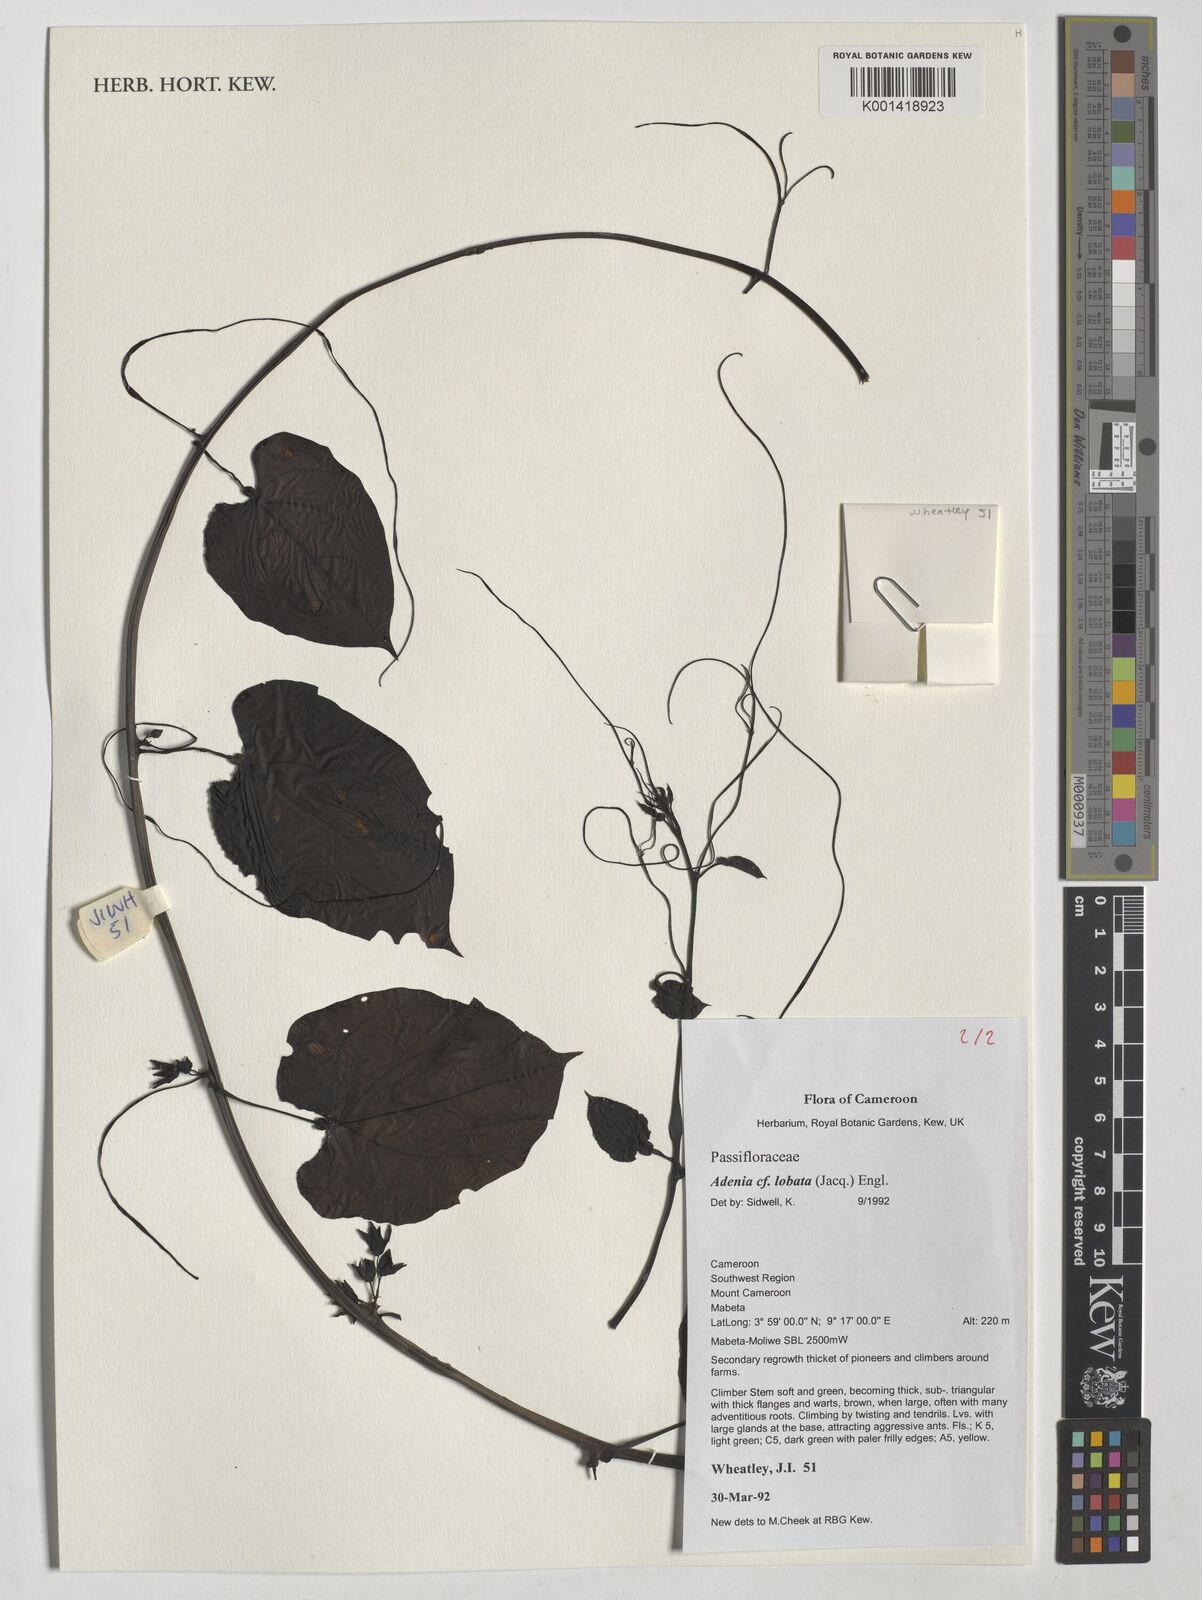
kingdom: Plantae
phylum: Tracheophyta
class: Magnoliopsida
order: Malpighiales
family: Passifloraceae
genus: Adenia
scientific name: Adenia lobata
